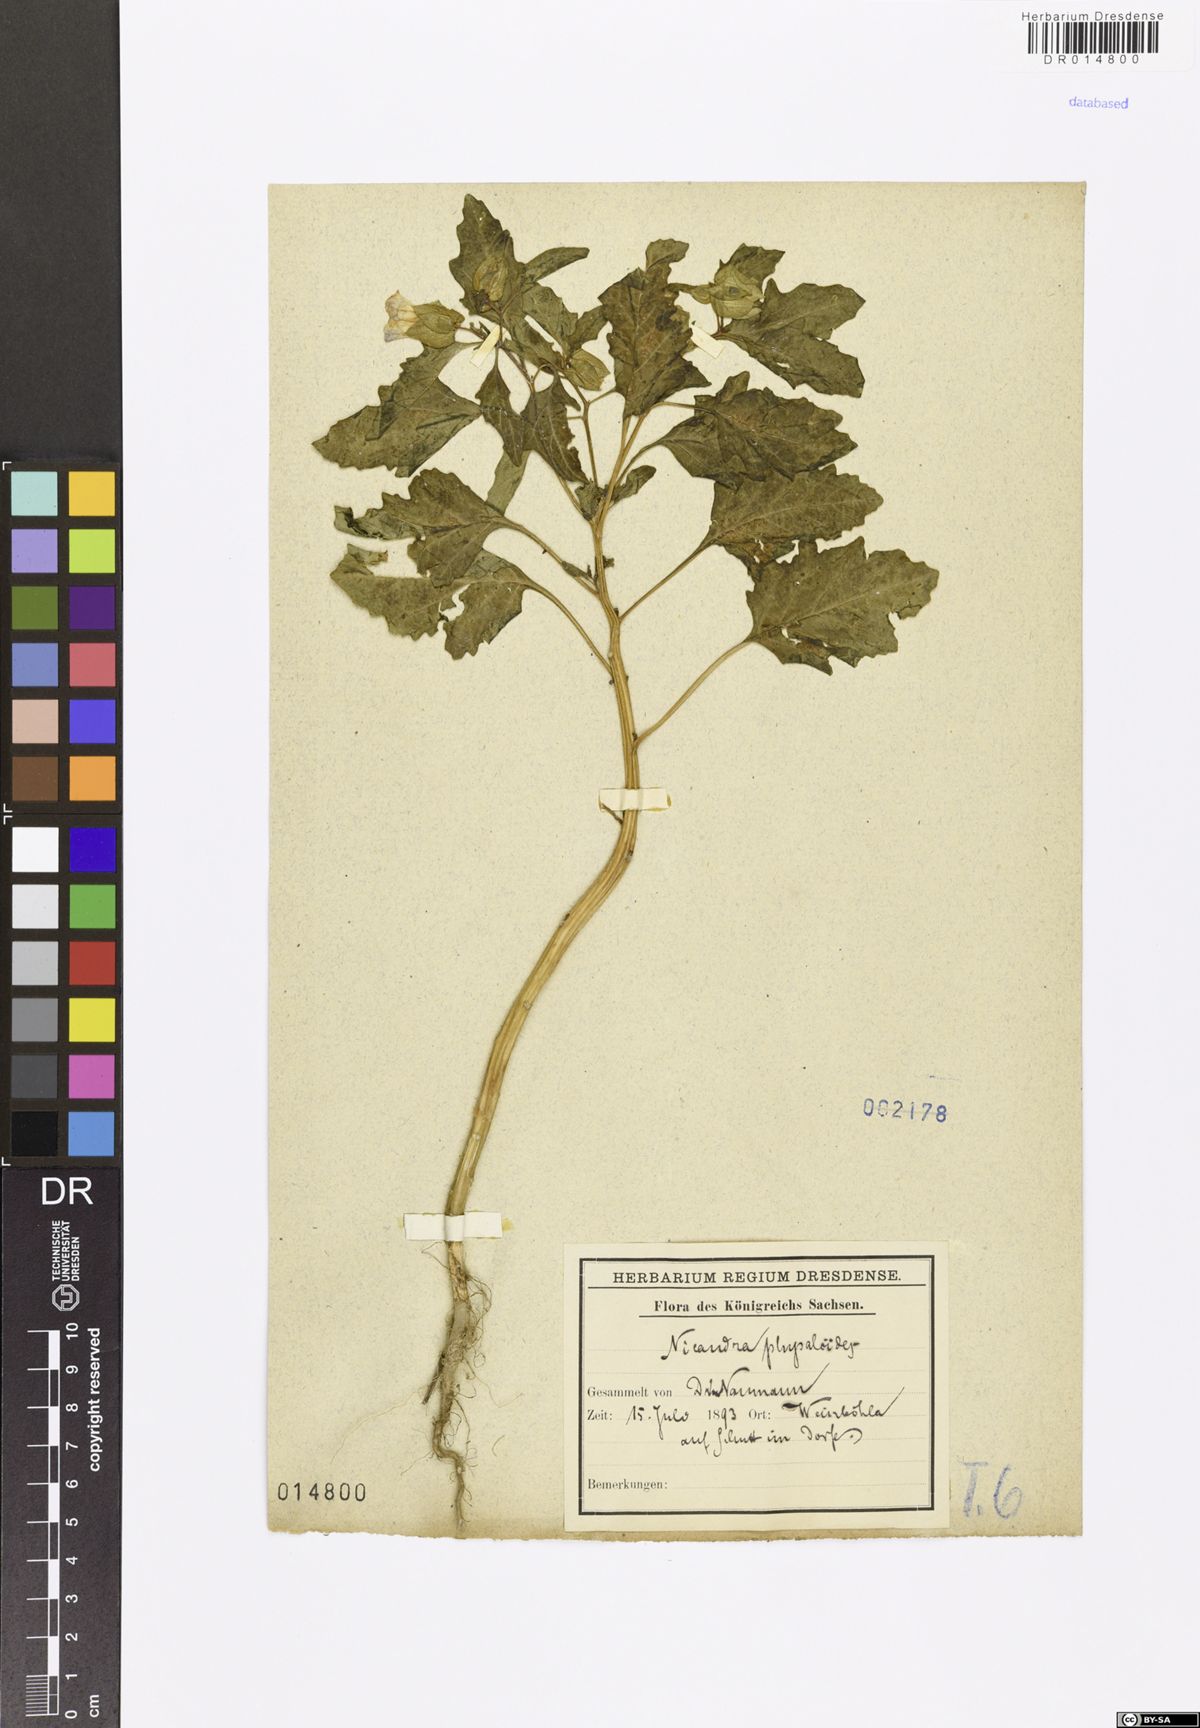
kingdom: Plantae
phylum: Tracheophyta
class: Magnoliopsida
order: Solanales
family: Solanaceae
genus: Nicandra
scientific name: Nicandra physalodes
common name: Apple-of-peru
